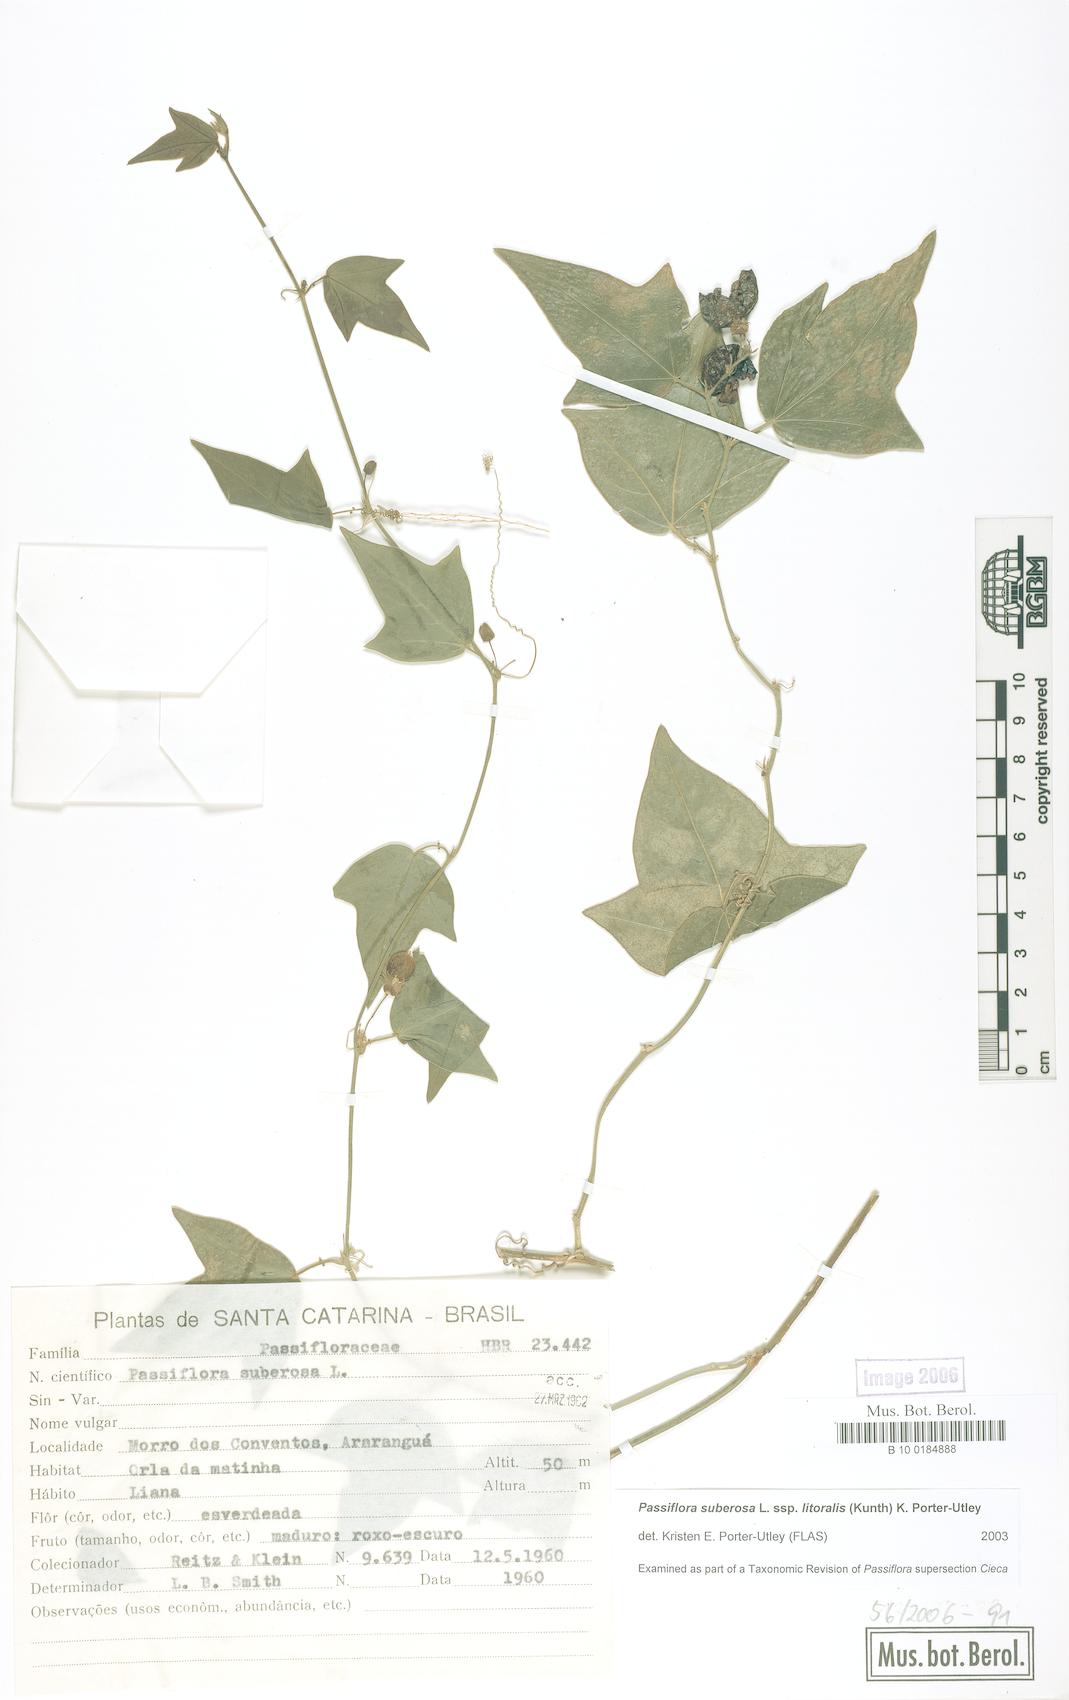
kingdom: Plantae
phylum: Tracheophyta
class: Magnoliopsida
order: Malpighiales
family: Passifloraceae
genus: Passiflora
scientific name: Passiflora suberosa
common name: Wild passionfruit
